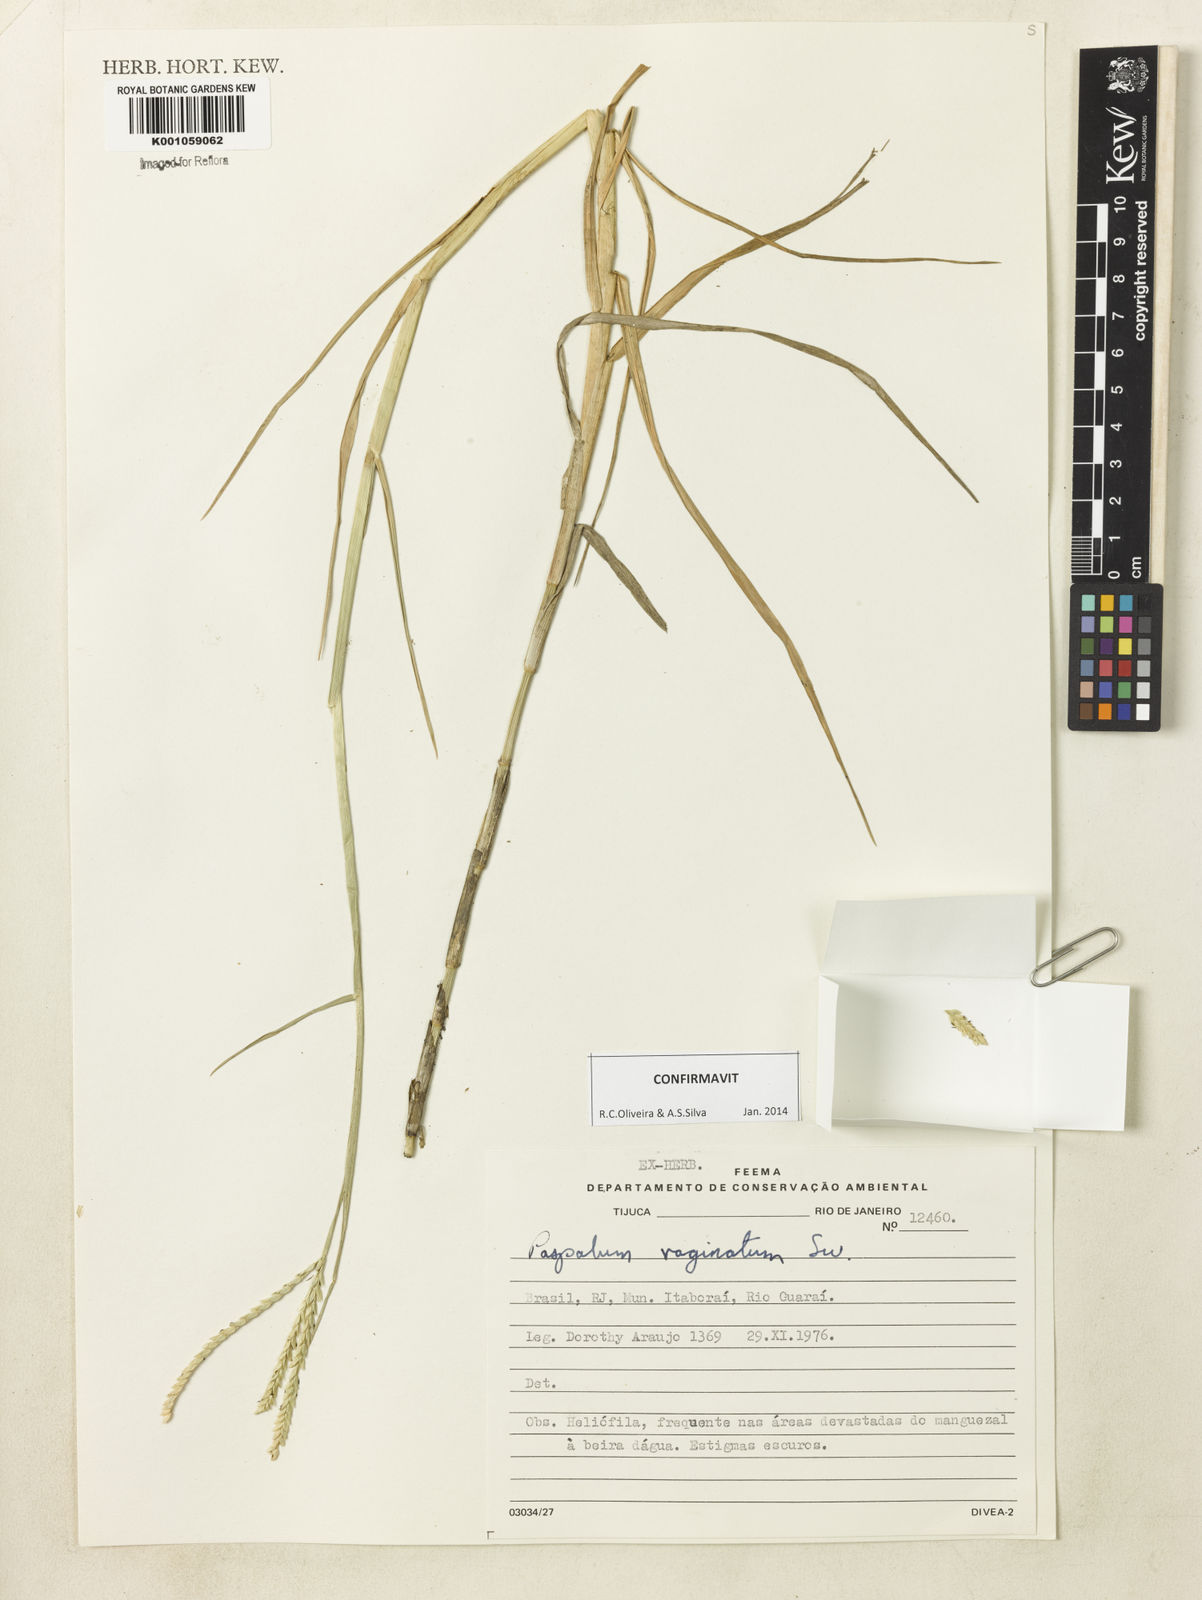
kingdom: Plantae
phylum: Tracheophyta
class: Liliopsida
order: Poales
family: Poaceae
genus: Paspalum
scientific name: Paspalum vaginatum
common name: Seashore paspalum
